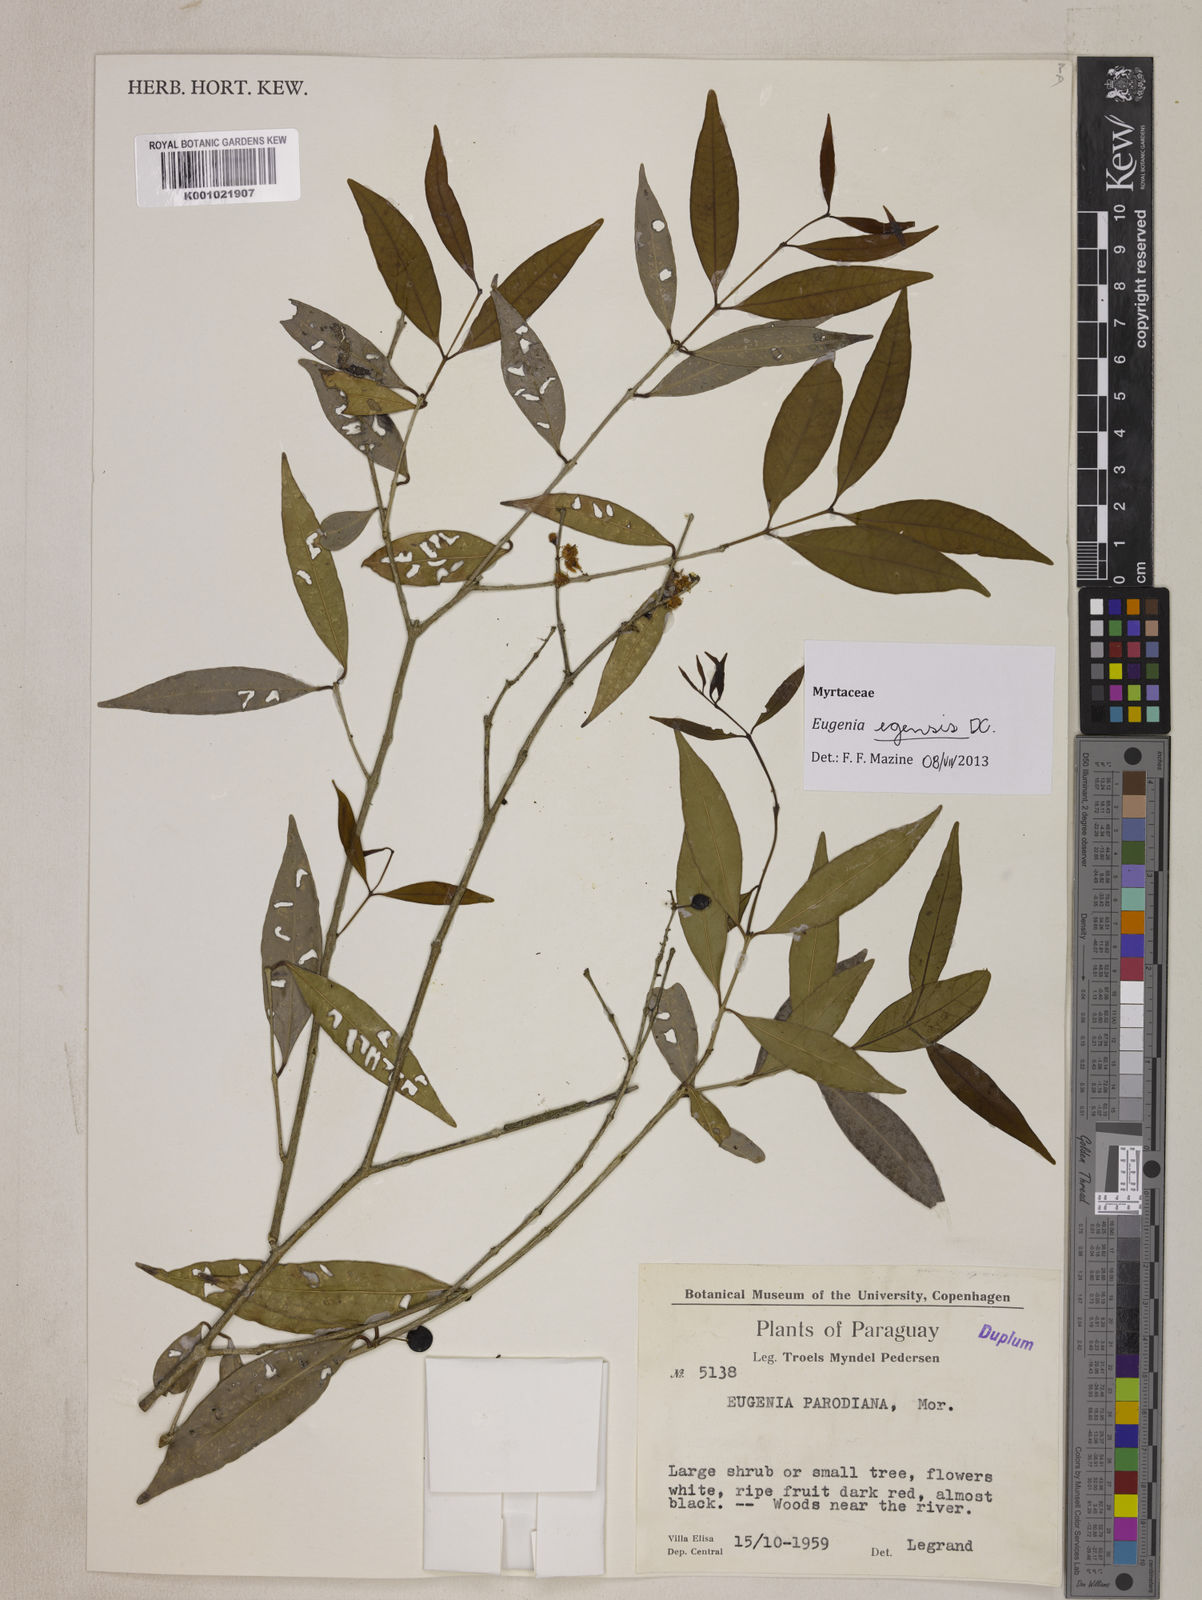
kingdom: Plantae
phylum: Tracheophyta
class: Magnoliopsida
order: Myrtales
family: Myrtaceae
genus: Eugenia
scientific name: Eugenia egensis
